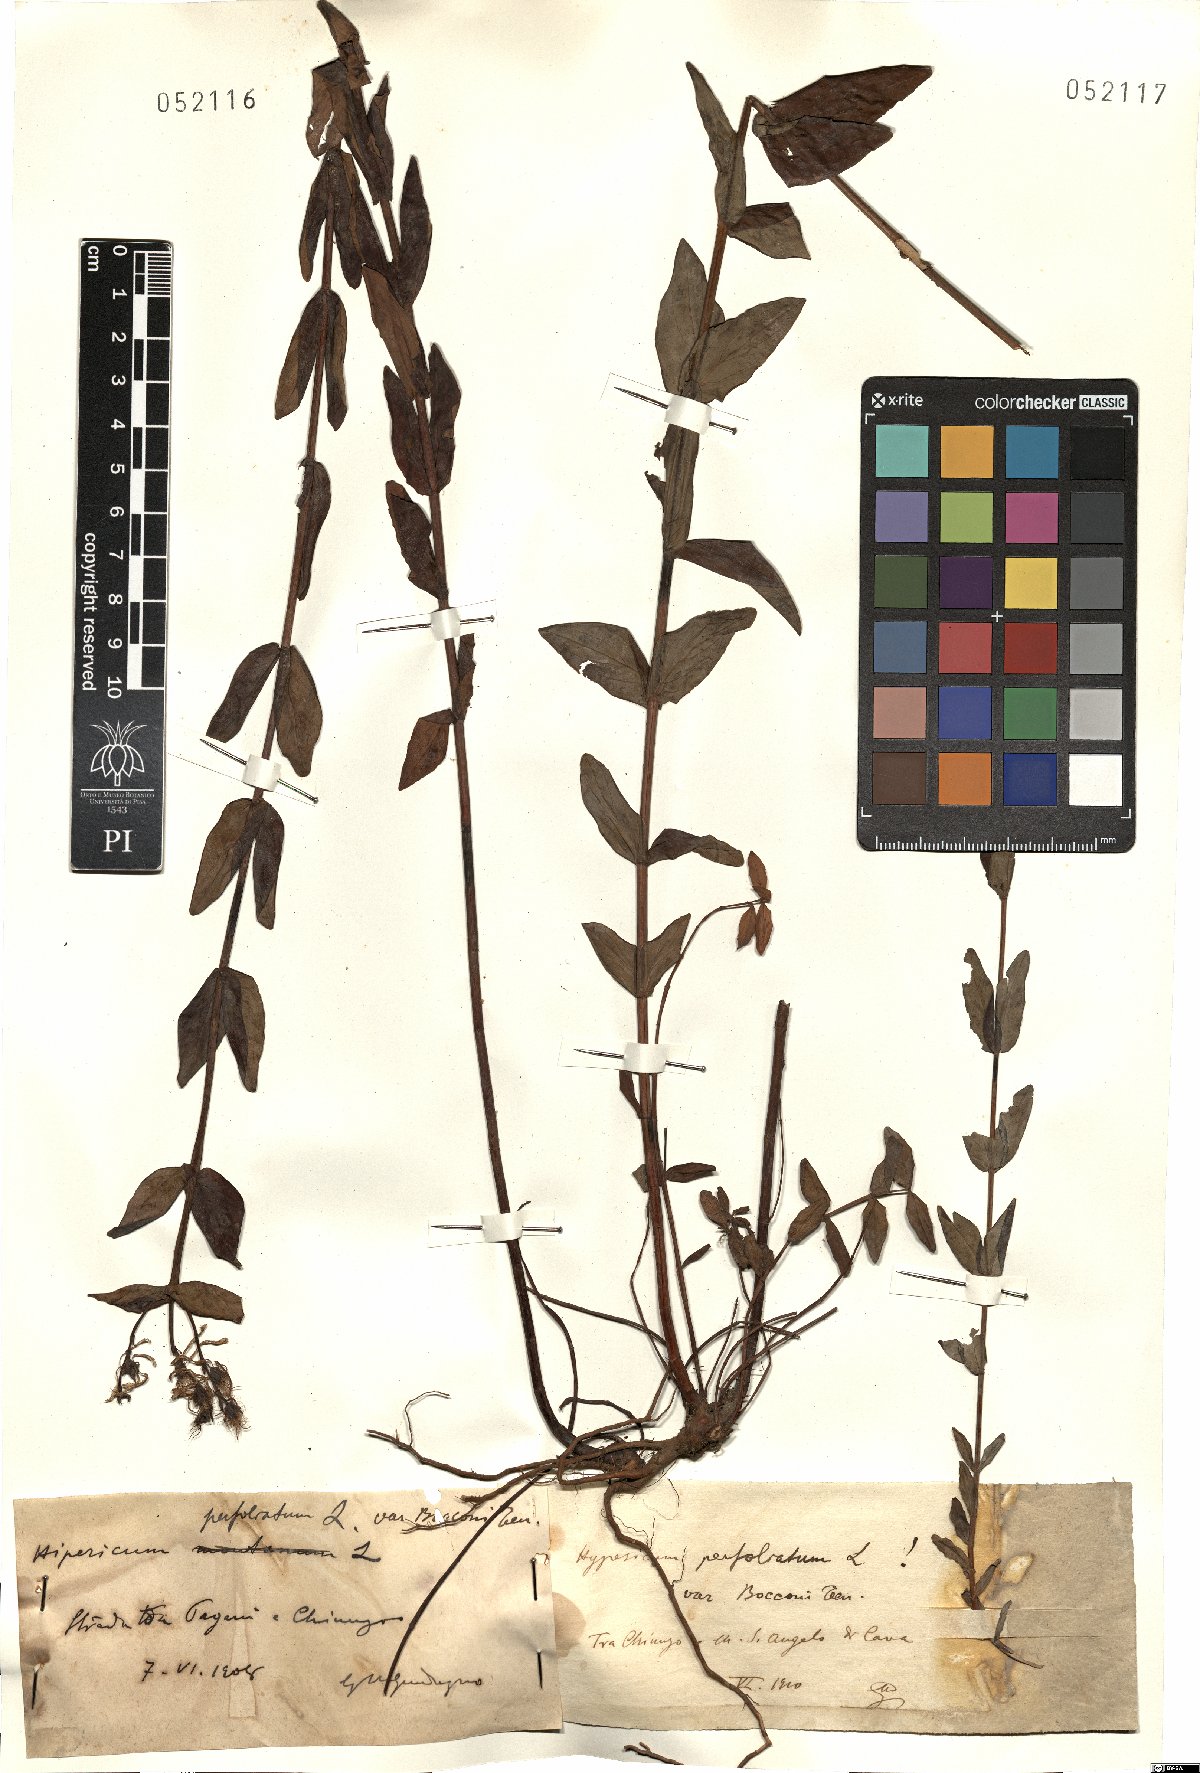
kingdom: Plantae
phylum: Tracheophyta
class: Magnoliopsida
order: Malpighiales
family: Hypericaceae
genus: Hypericum
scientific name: Hypericum perfoliatum
